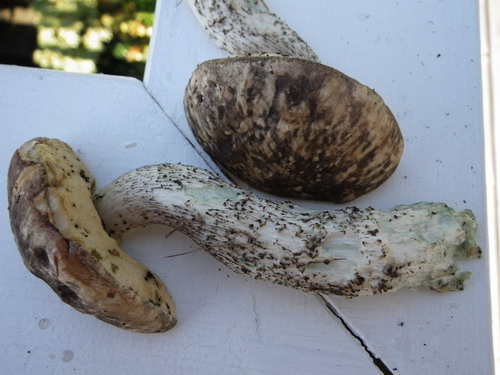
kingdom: Fungi
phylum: Basidiomycota
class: Agaricomycetes
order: Boletales
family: Boletaceae
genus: Leccinum
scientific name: Leccinum variicolor
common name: flammet skælrørhat
